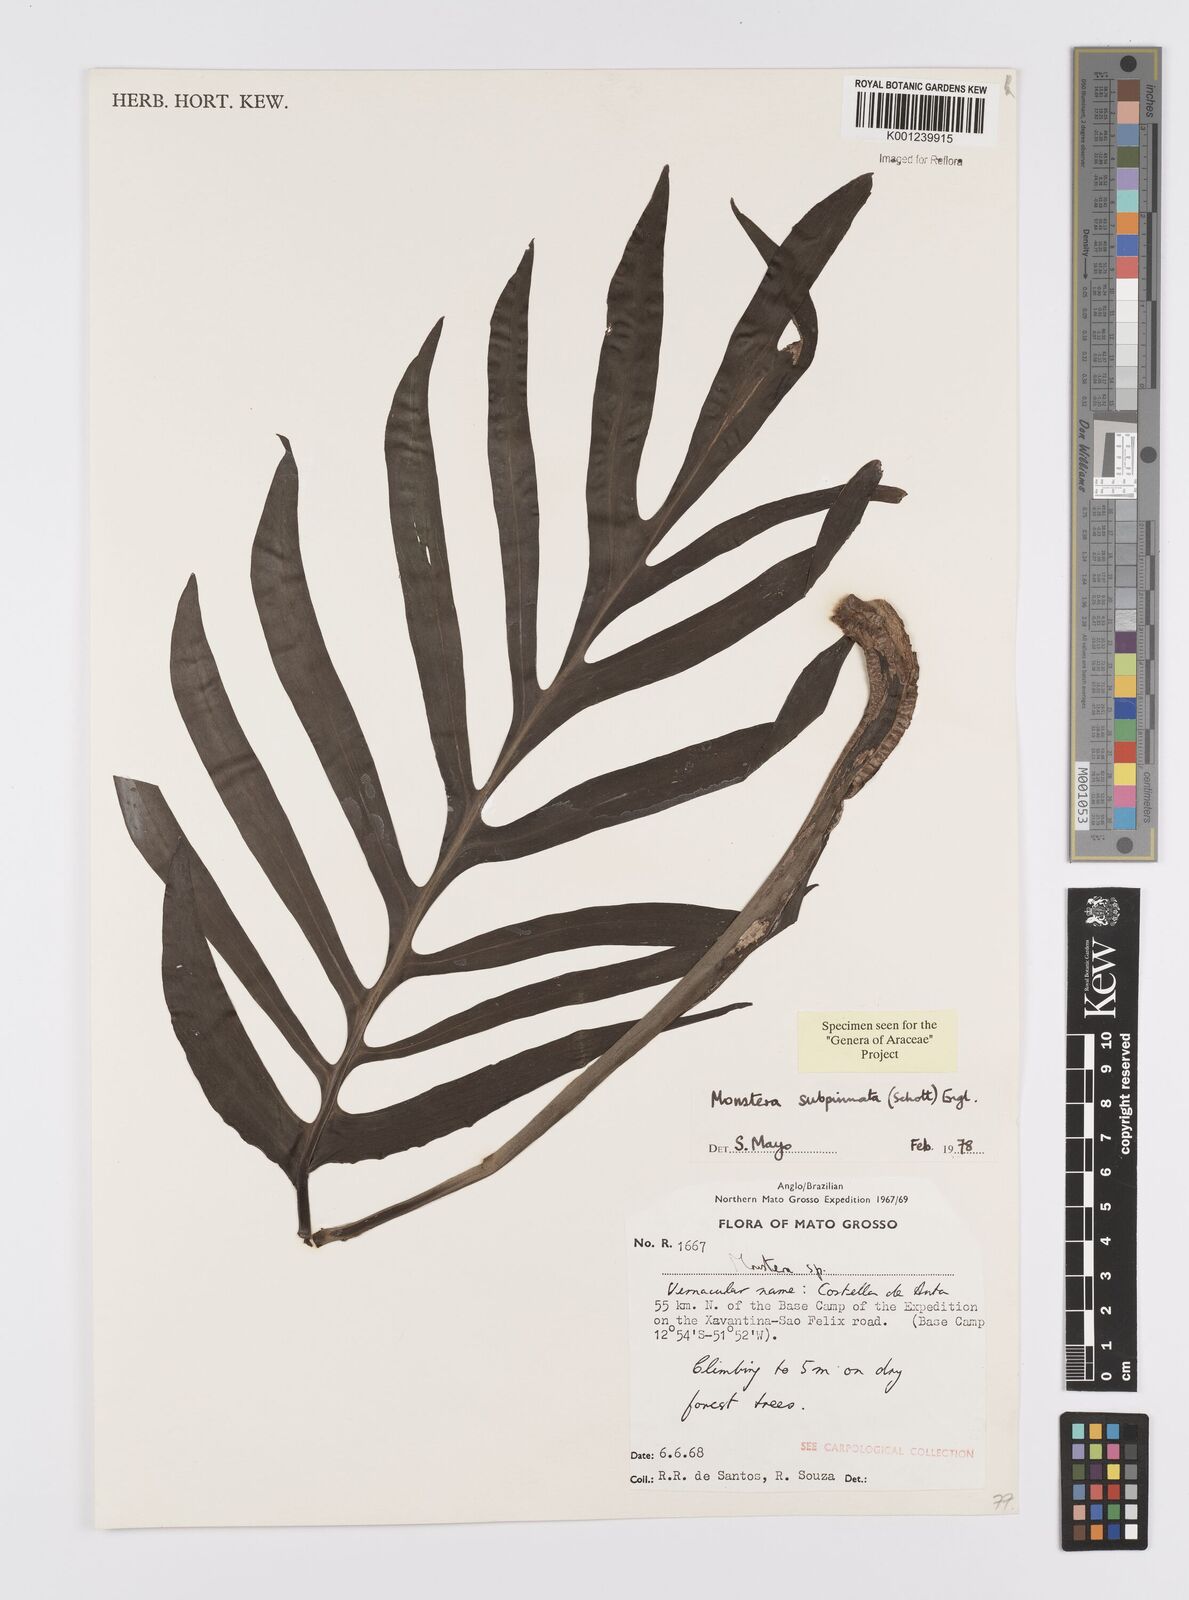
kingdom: Plantae
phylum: Tracheophyta
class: Liliopsida
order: Alismatales
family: Araceae
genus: Monstera
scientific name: Monstera subpinnata
